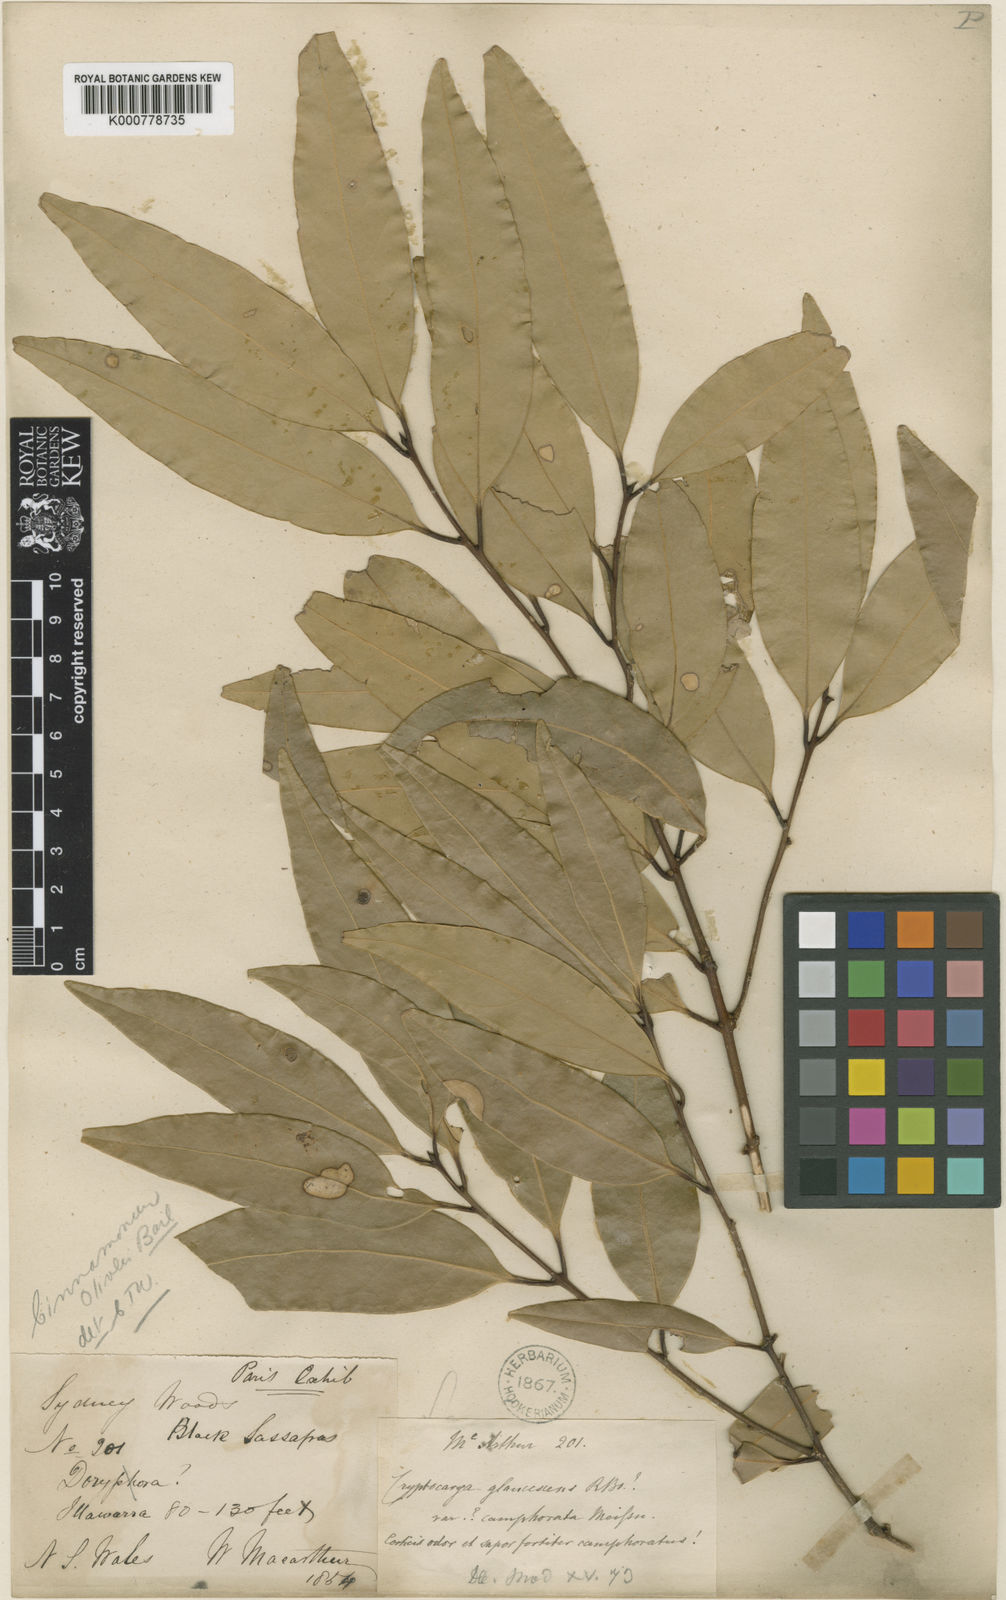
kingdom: Plantae
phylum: Tracheophyta
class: Magnoliopsida
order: Laurales
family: Lauraceae
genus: Cinnamomum
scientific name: Cinnamomum oliveri
